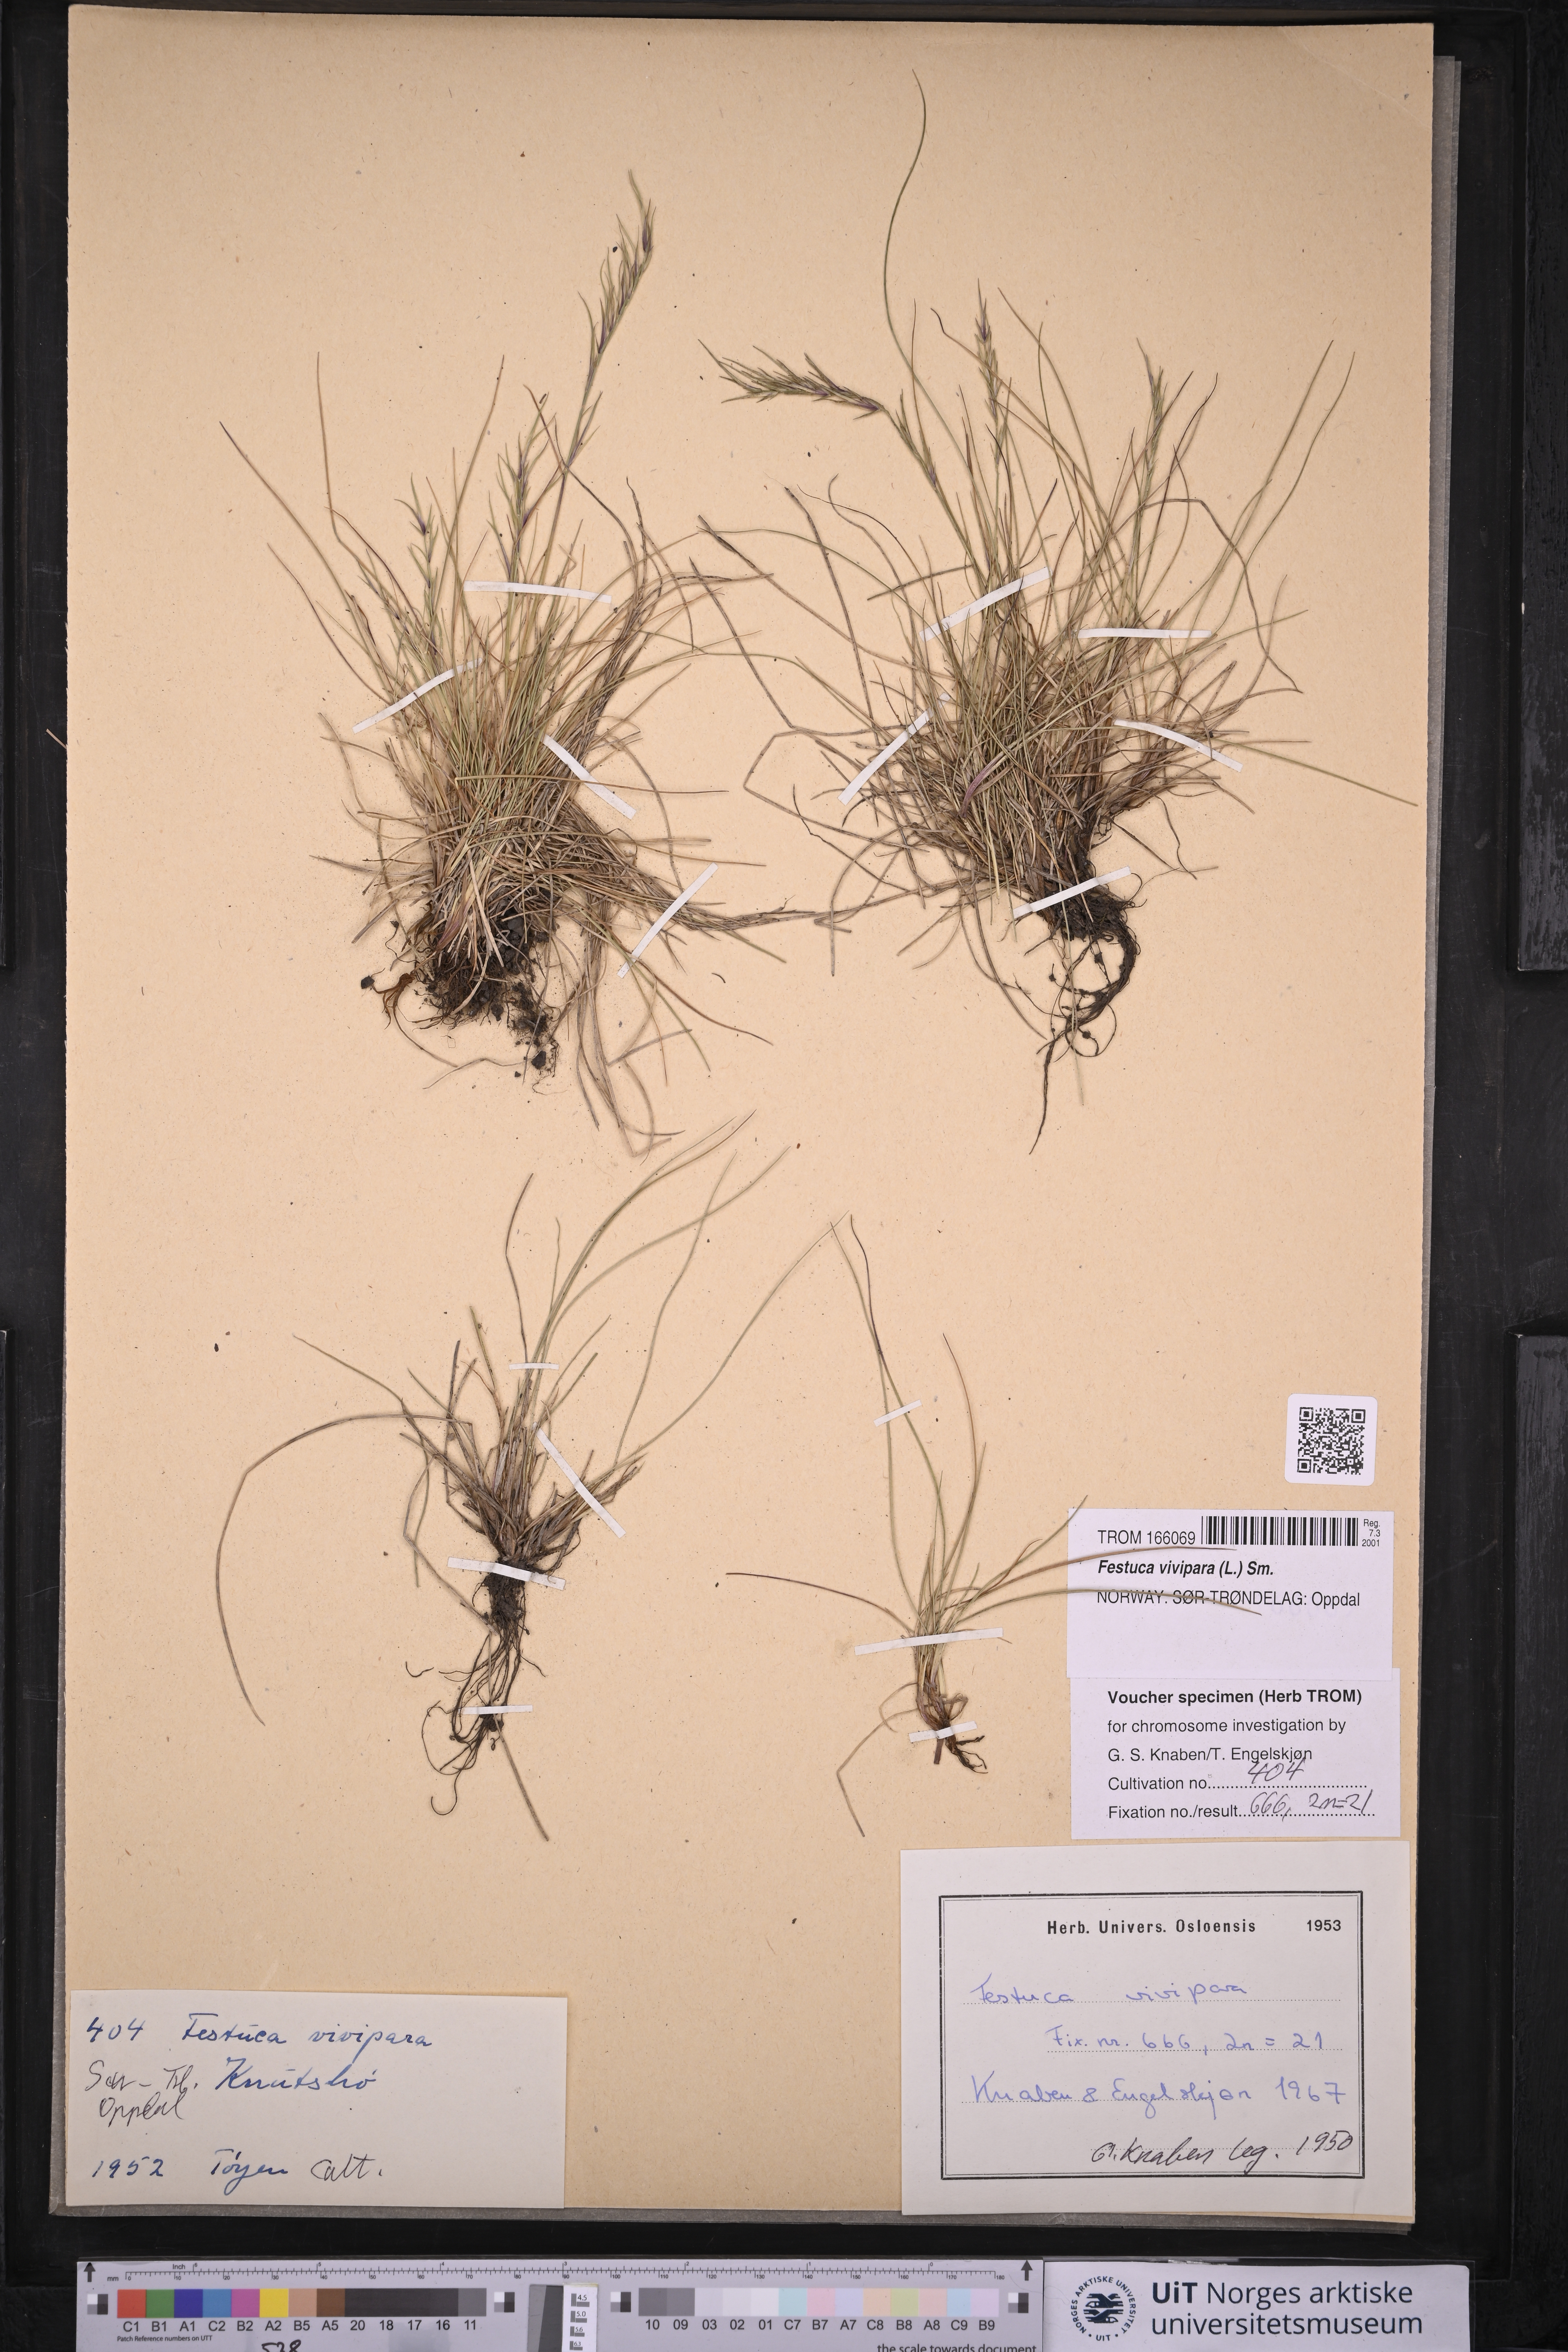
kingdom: Plantae
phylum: Tracheophyta
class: Liliopsida
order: Poales
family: Poaceae
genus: Festuca
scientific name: Festuca vivipara
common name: Viviparous sheep's-fescue
